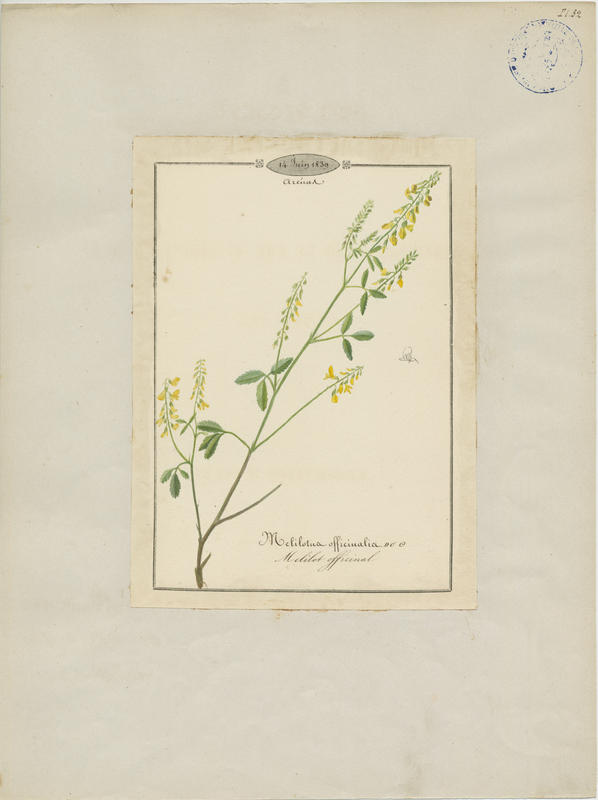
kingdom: Plantae
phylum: Tracheophyta
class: Magnoliopsida
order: Fabales
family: Fabaceae
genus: Melilotus
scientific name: Melilotus melilotus-officinalis
